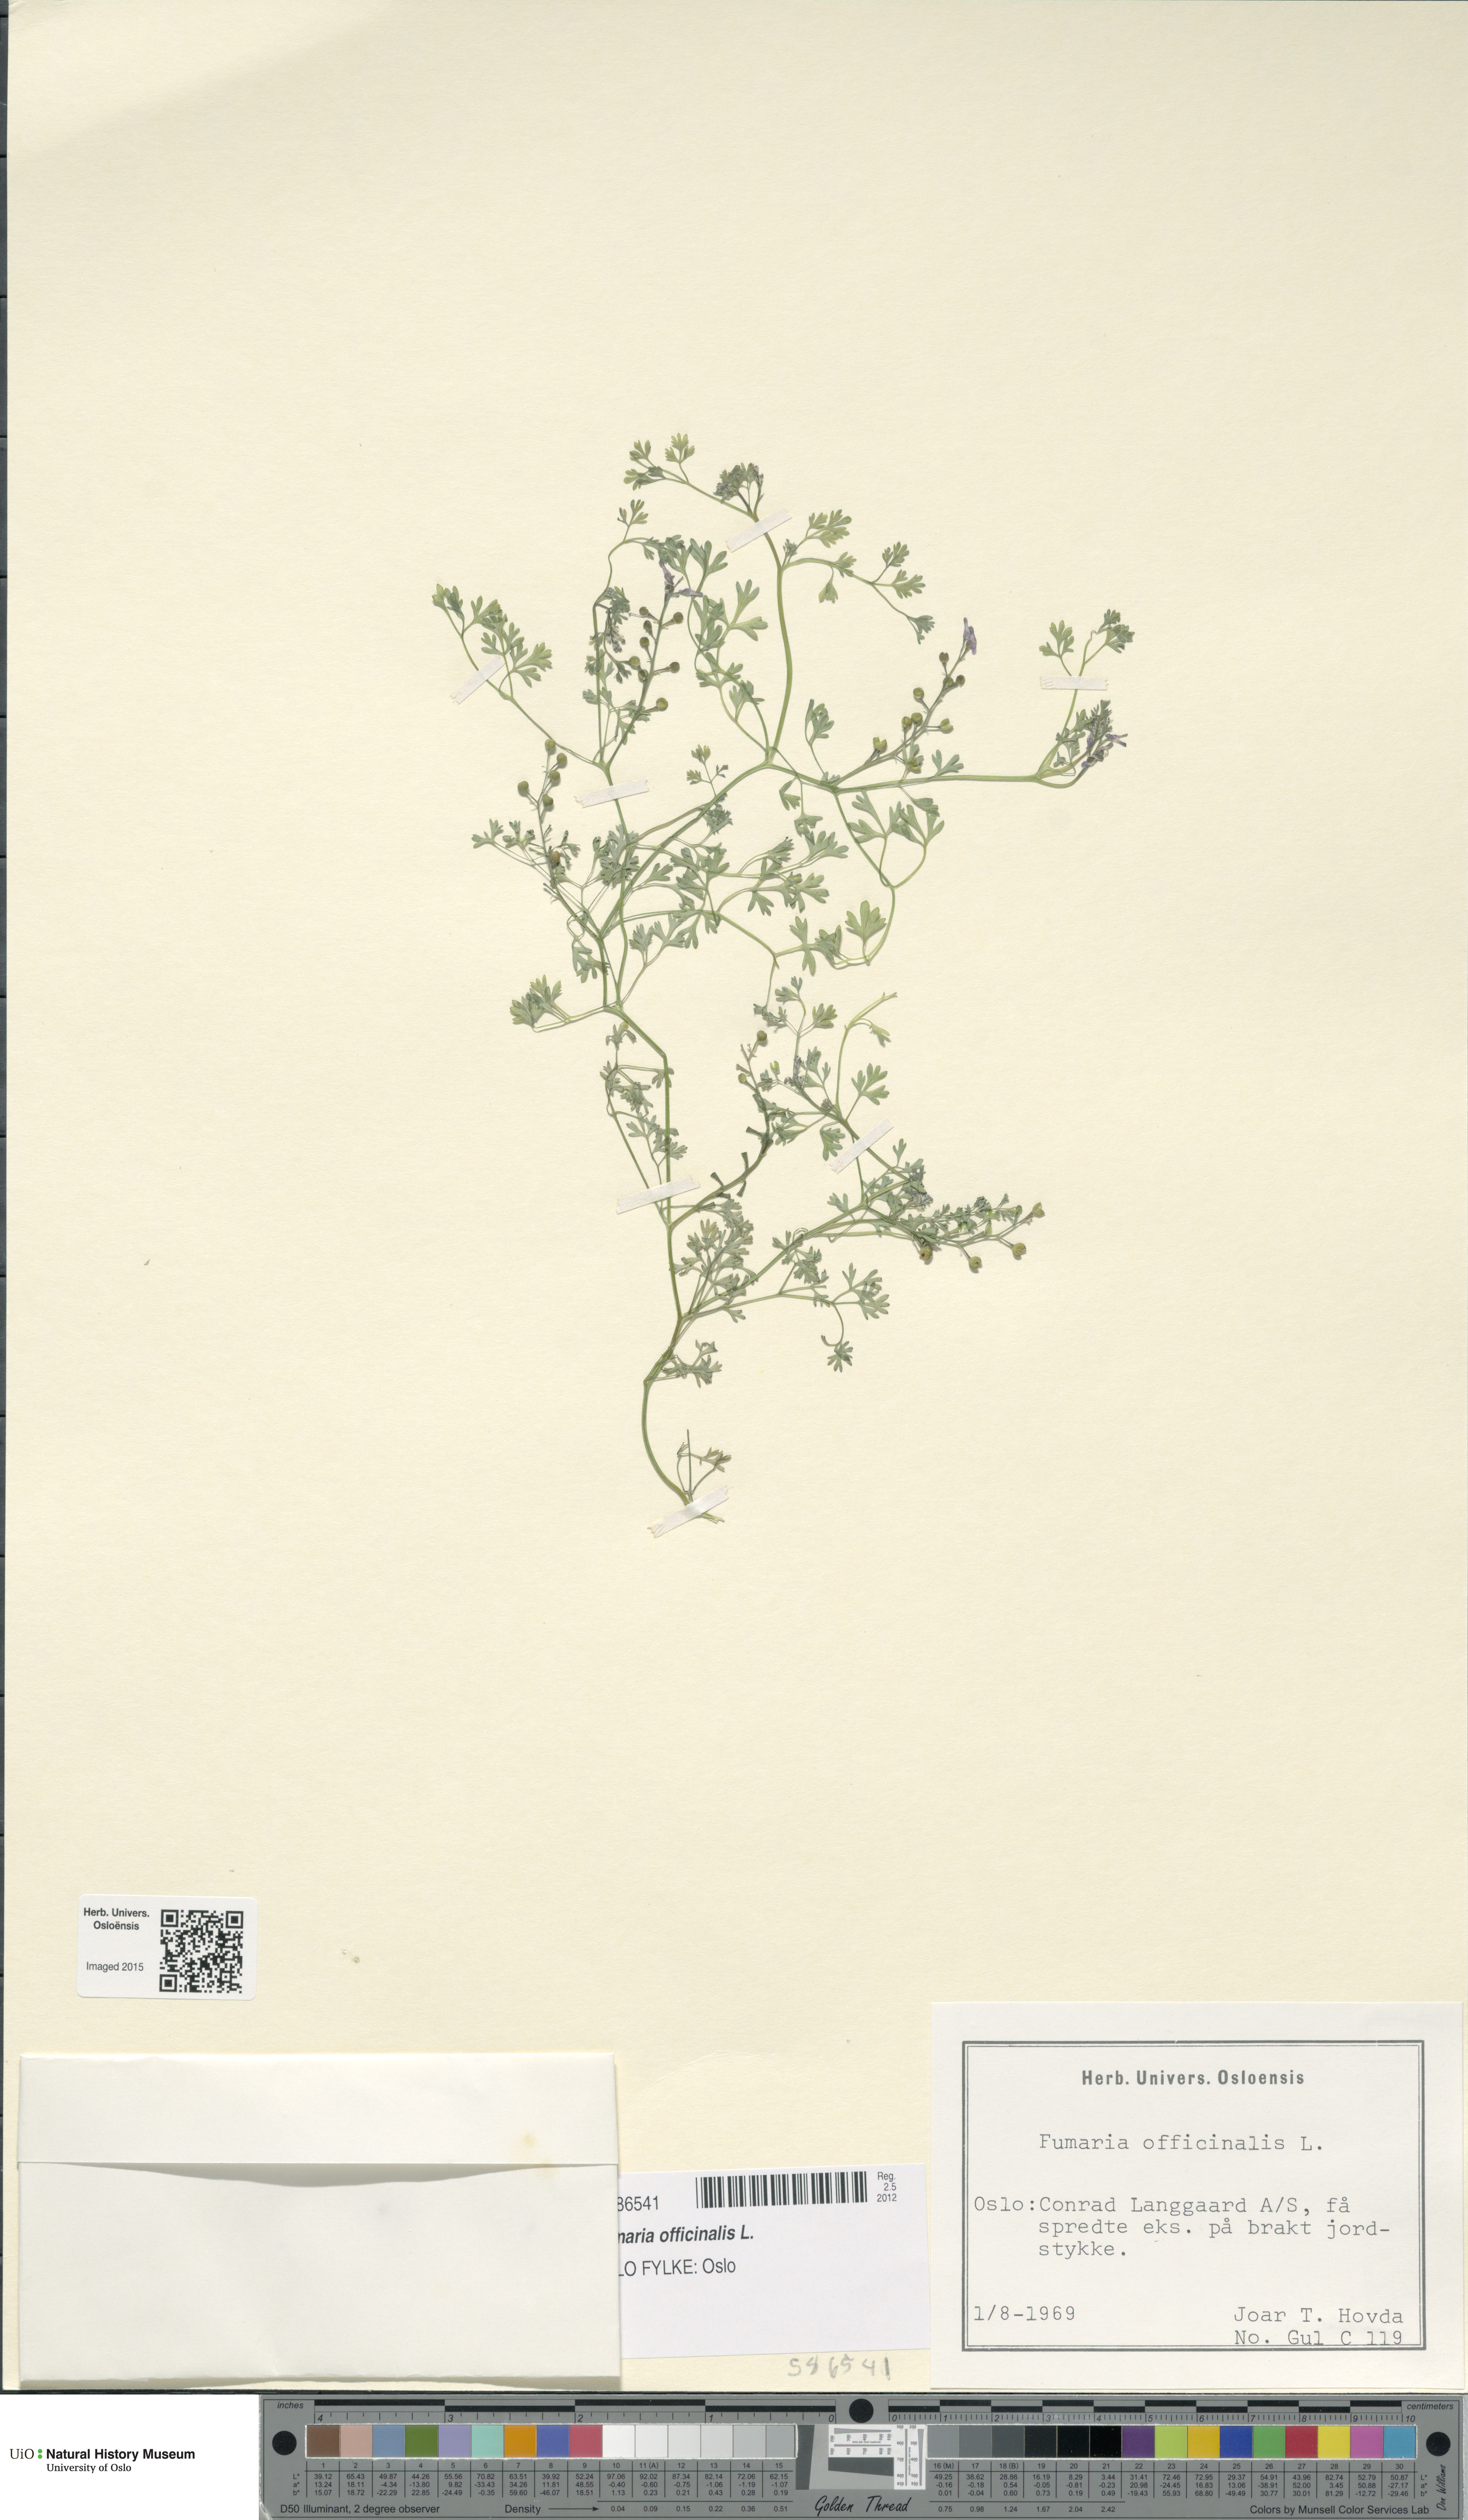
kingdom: Plantae
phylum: Tracheophyta
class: Magnoliopsida
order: Ranunculales
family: Papaveraceae
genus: Fumaria
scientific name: Fumaria officinalis
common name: Common fumitory
